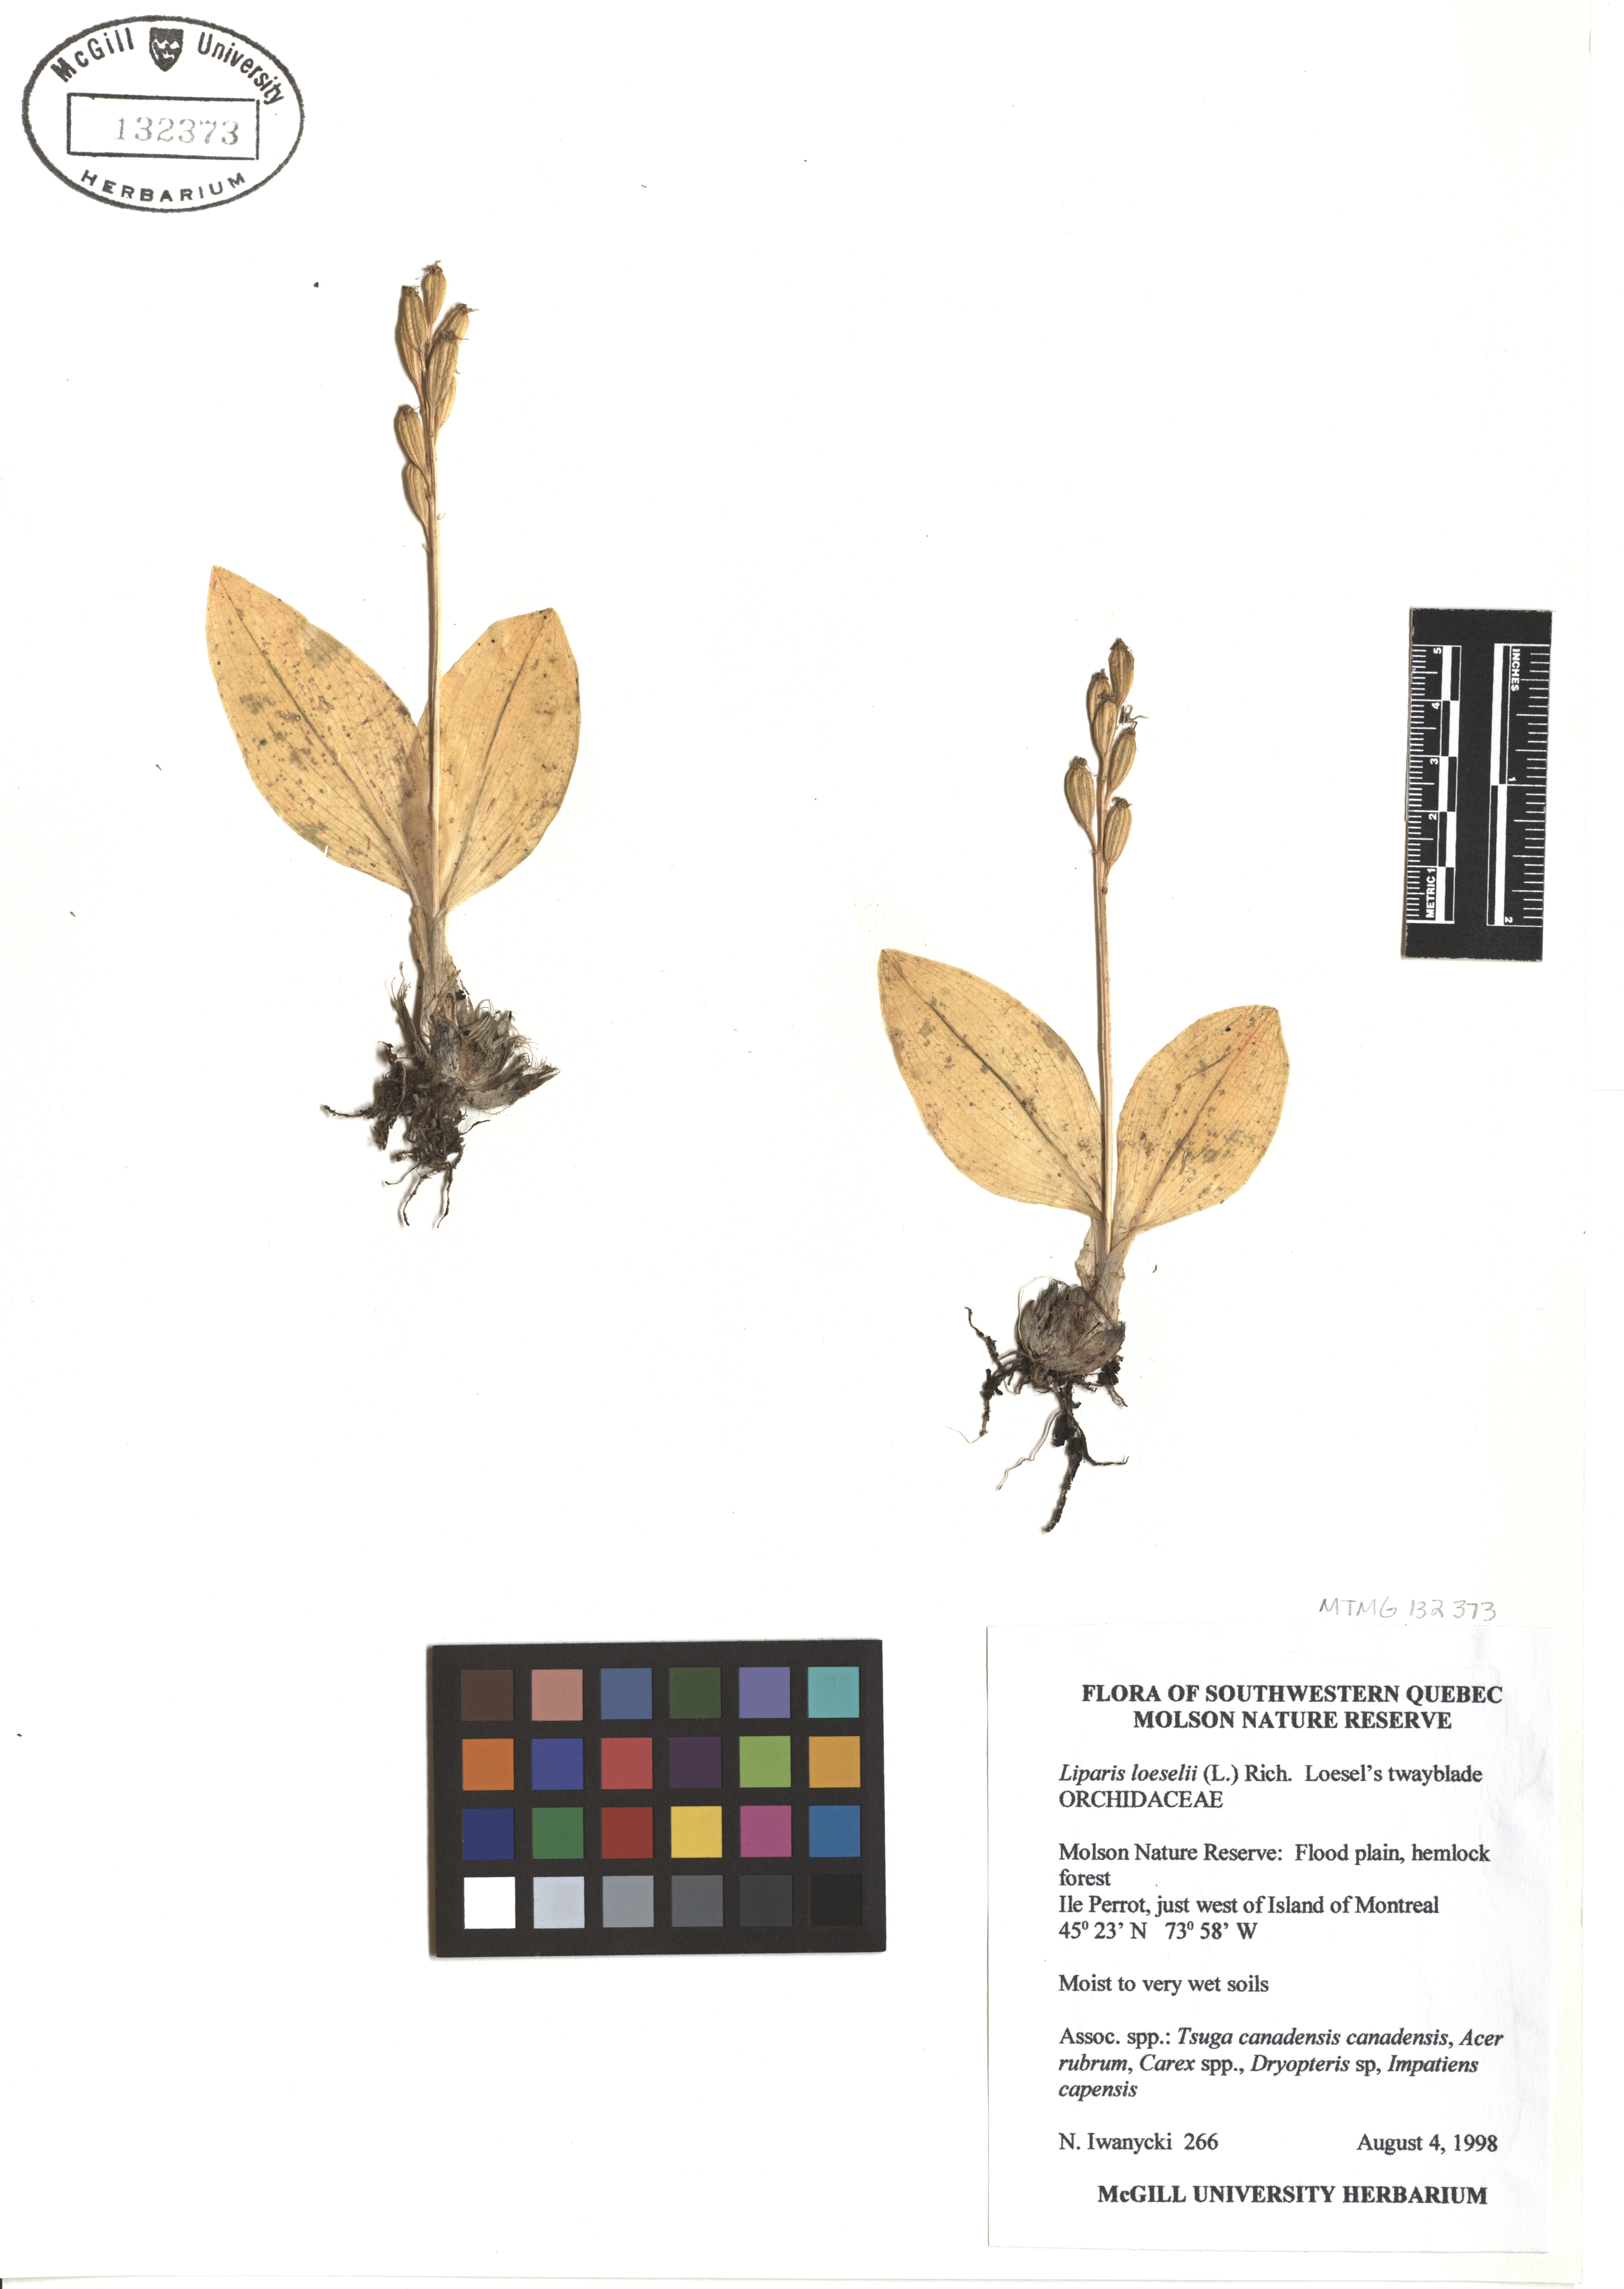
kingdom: Animalia
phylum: Arthropoda
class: Insecta
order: Coleoptera
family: Curculionidae
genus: Liparis
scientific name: Liparis loeselii
